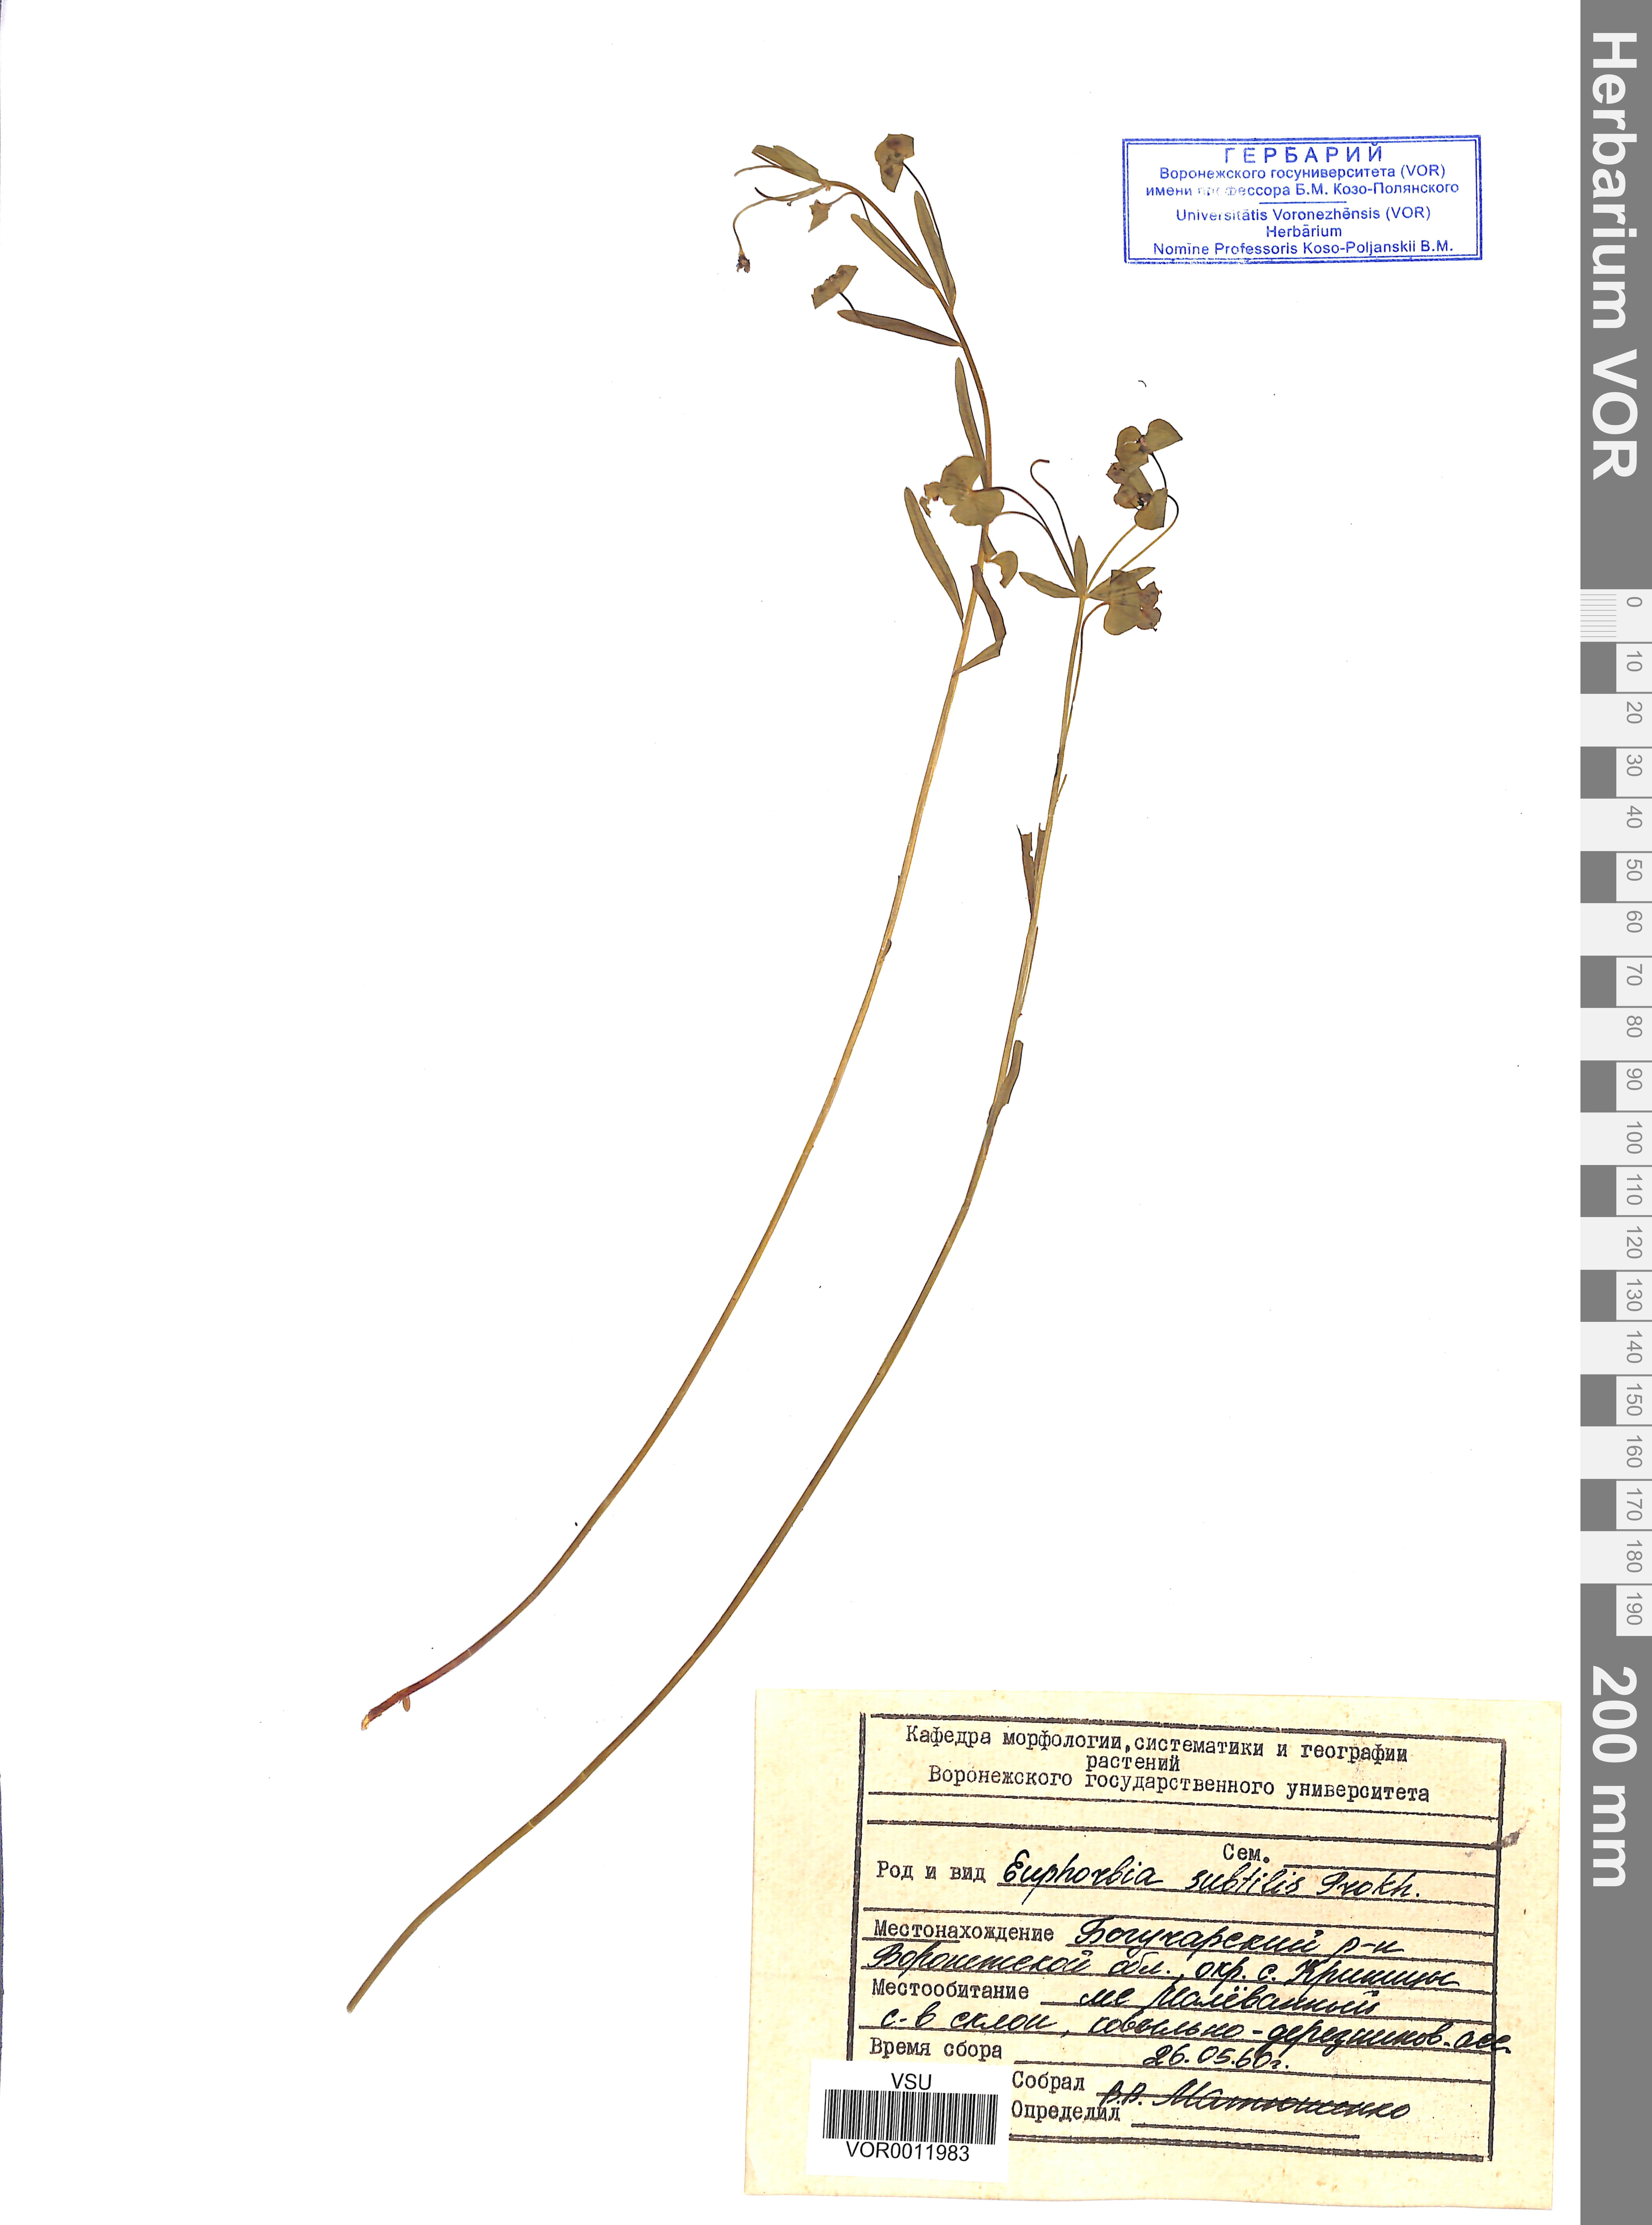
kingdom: Plantae
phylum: Tracheophyta
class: Magnoliopsida
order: Malpighiales
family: Euphorbiaceae
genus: Euphorbia
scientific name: Euphorbia microcarpa
